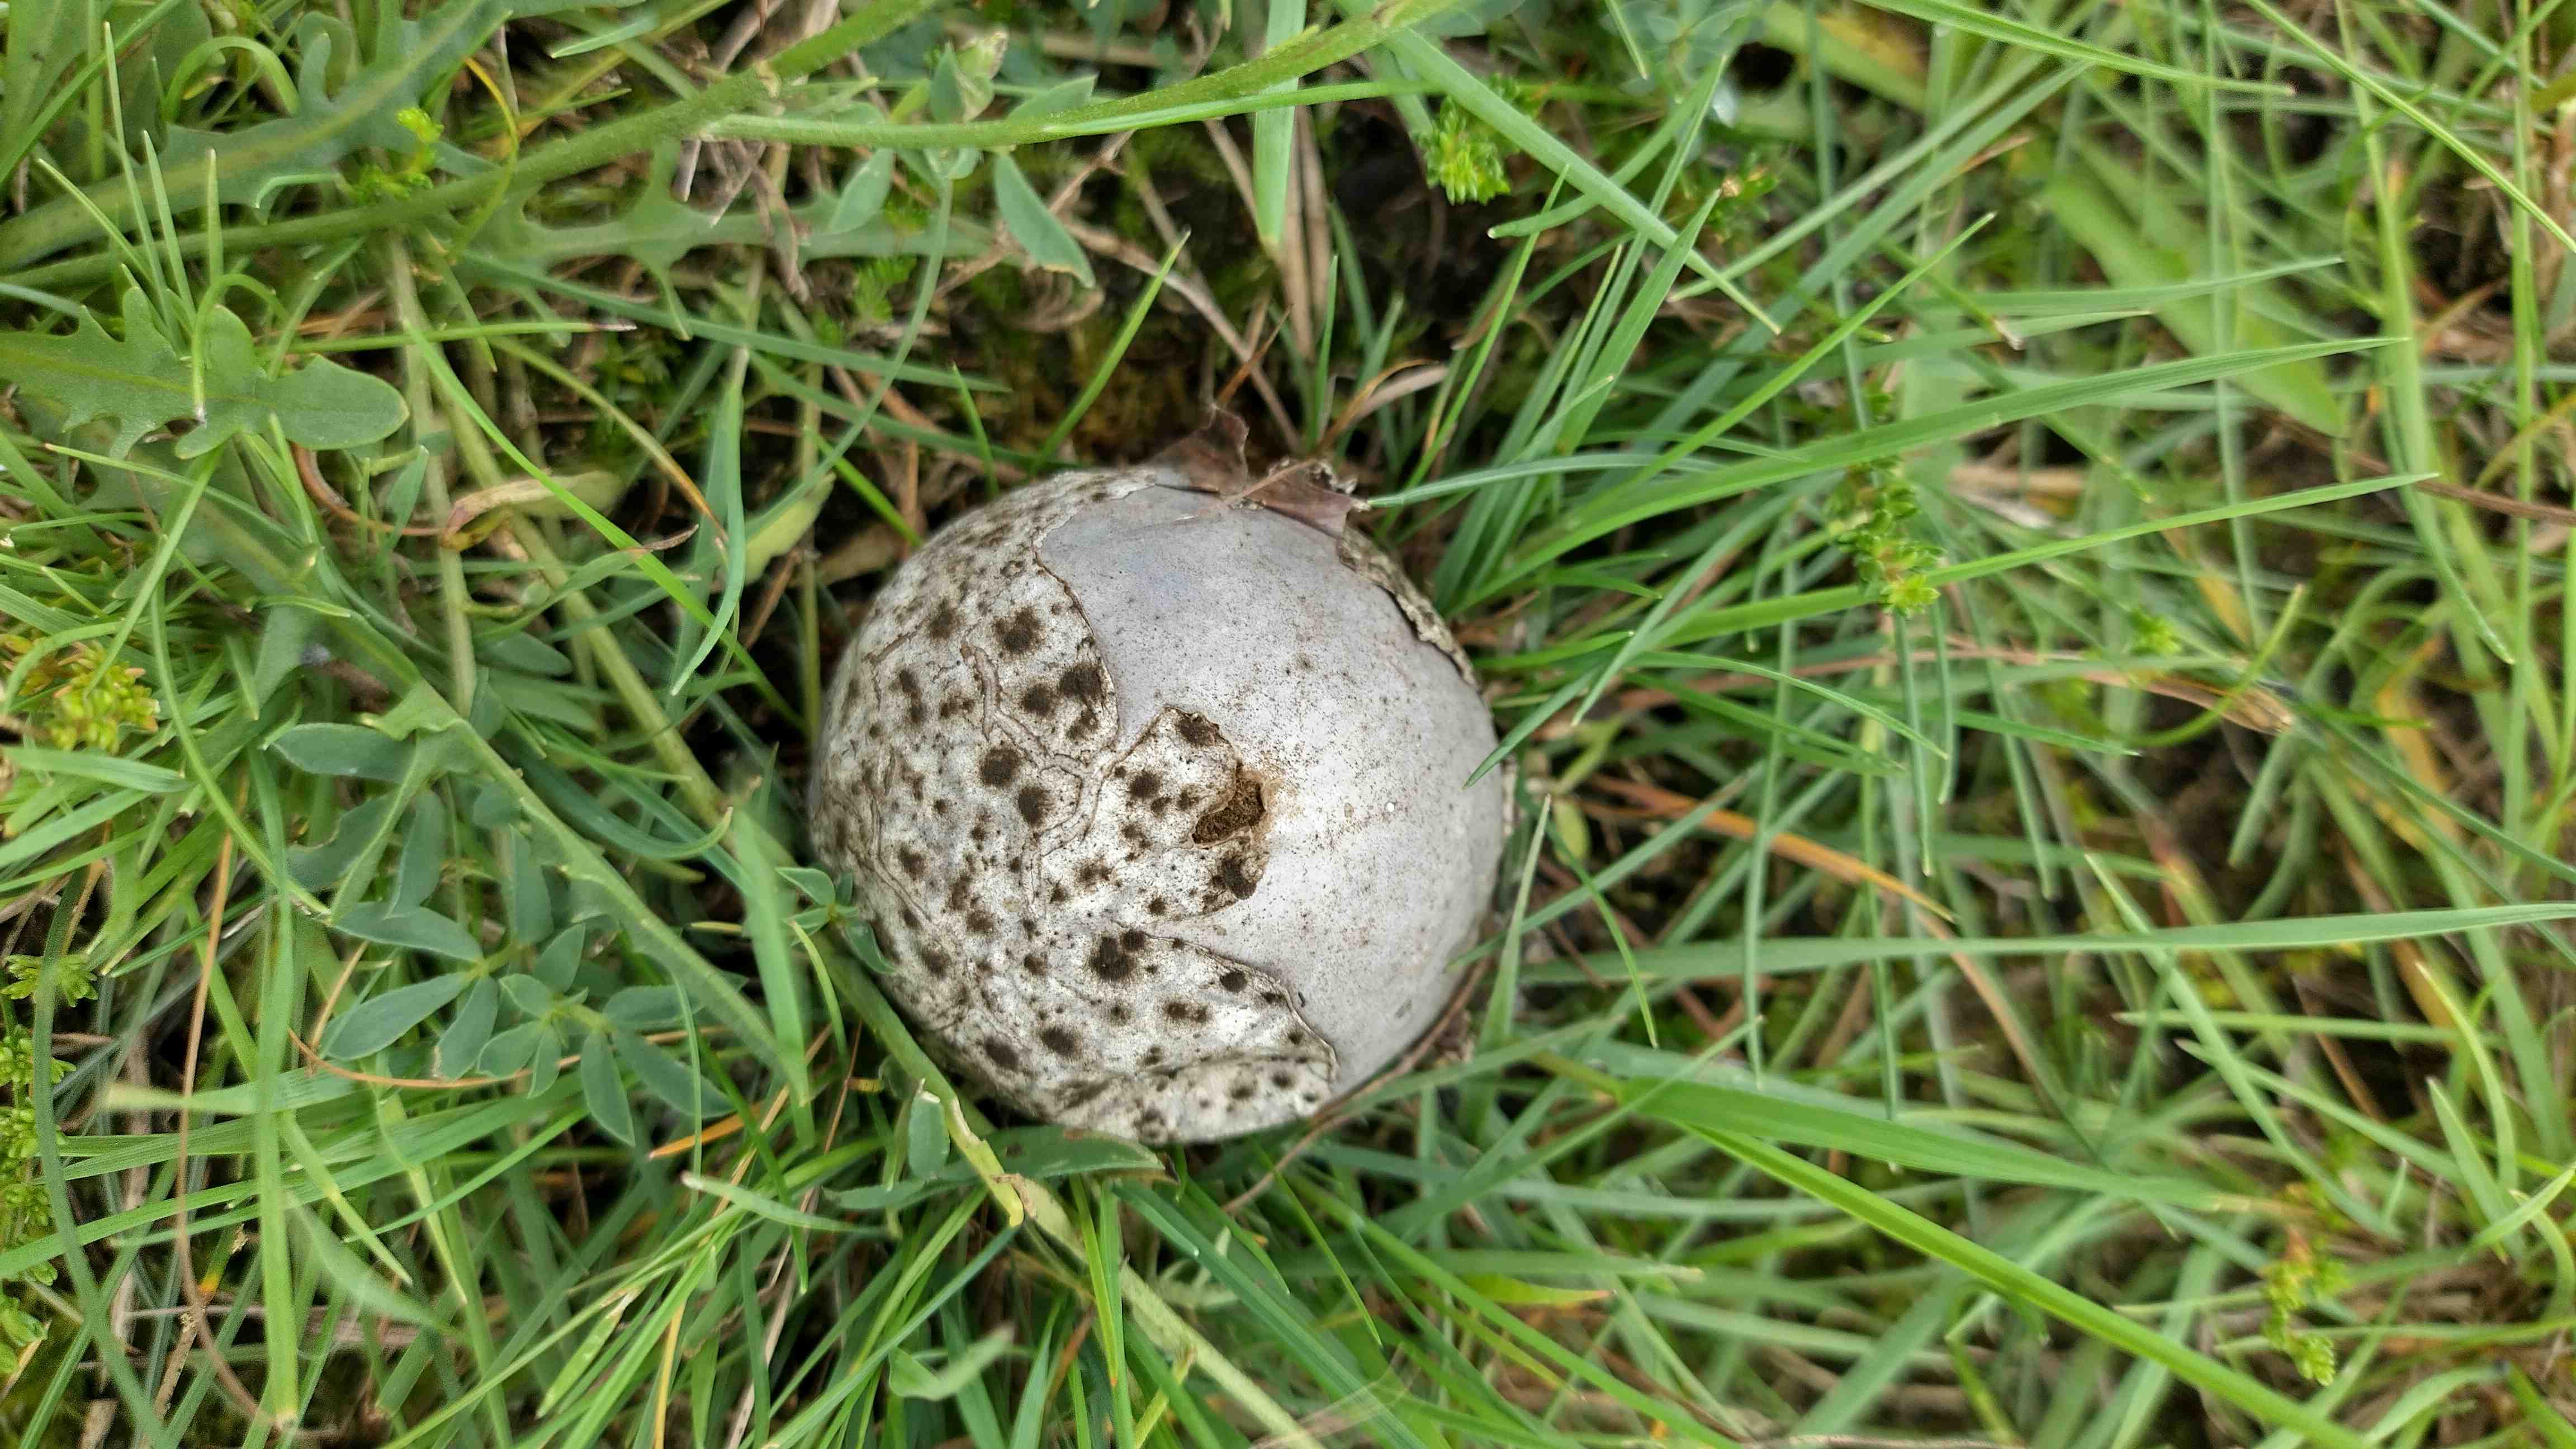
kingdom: Fungi
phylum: Basidiomycota
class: Agaricomycetes
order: Agaricales
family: Lycoperdaceae
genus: Bovista
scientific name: Bovista plumbea
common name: blygrå bovist
